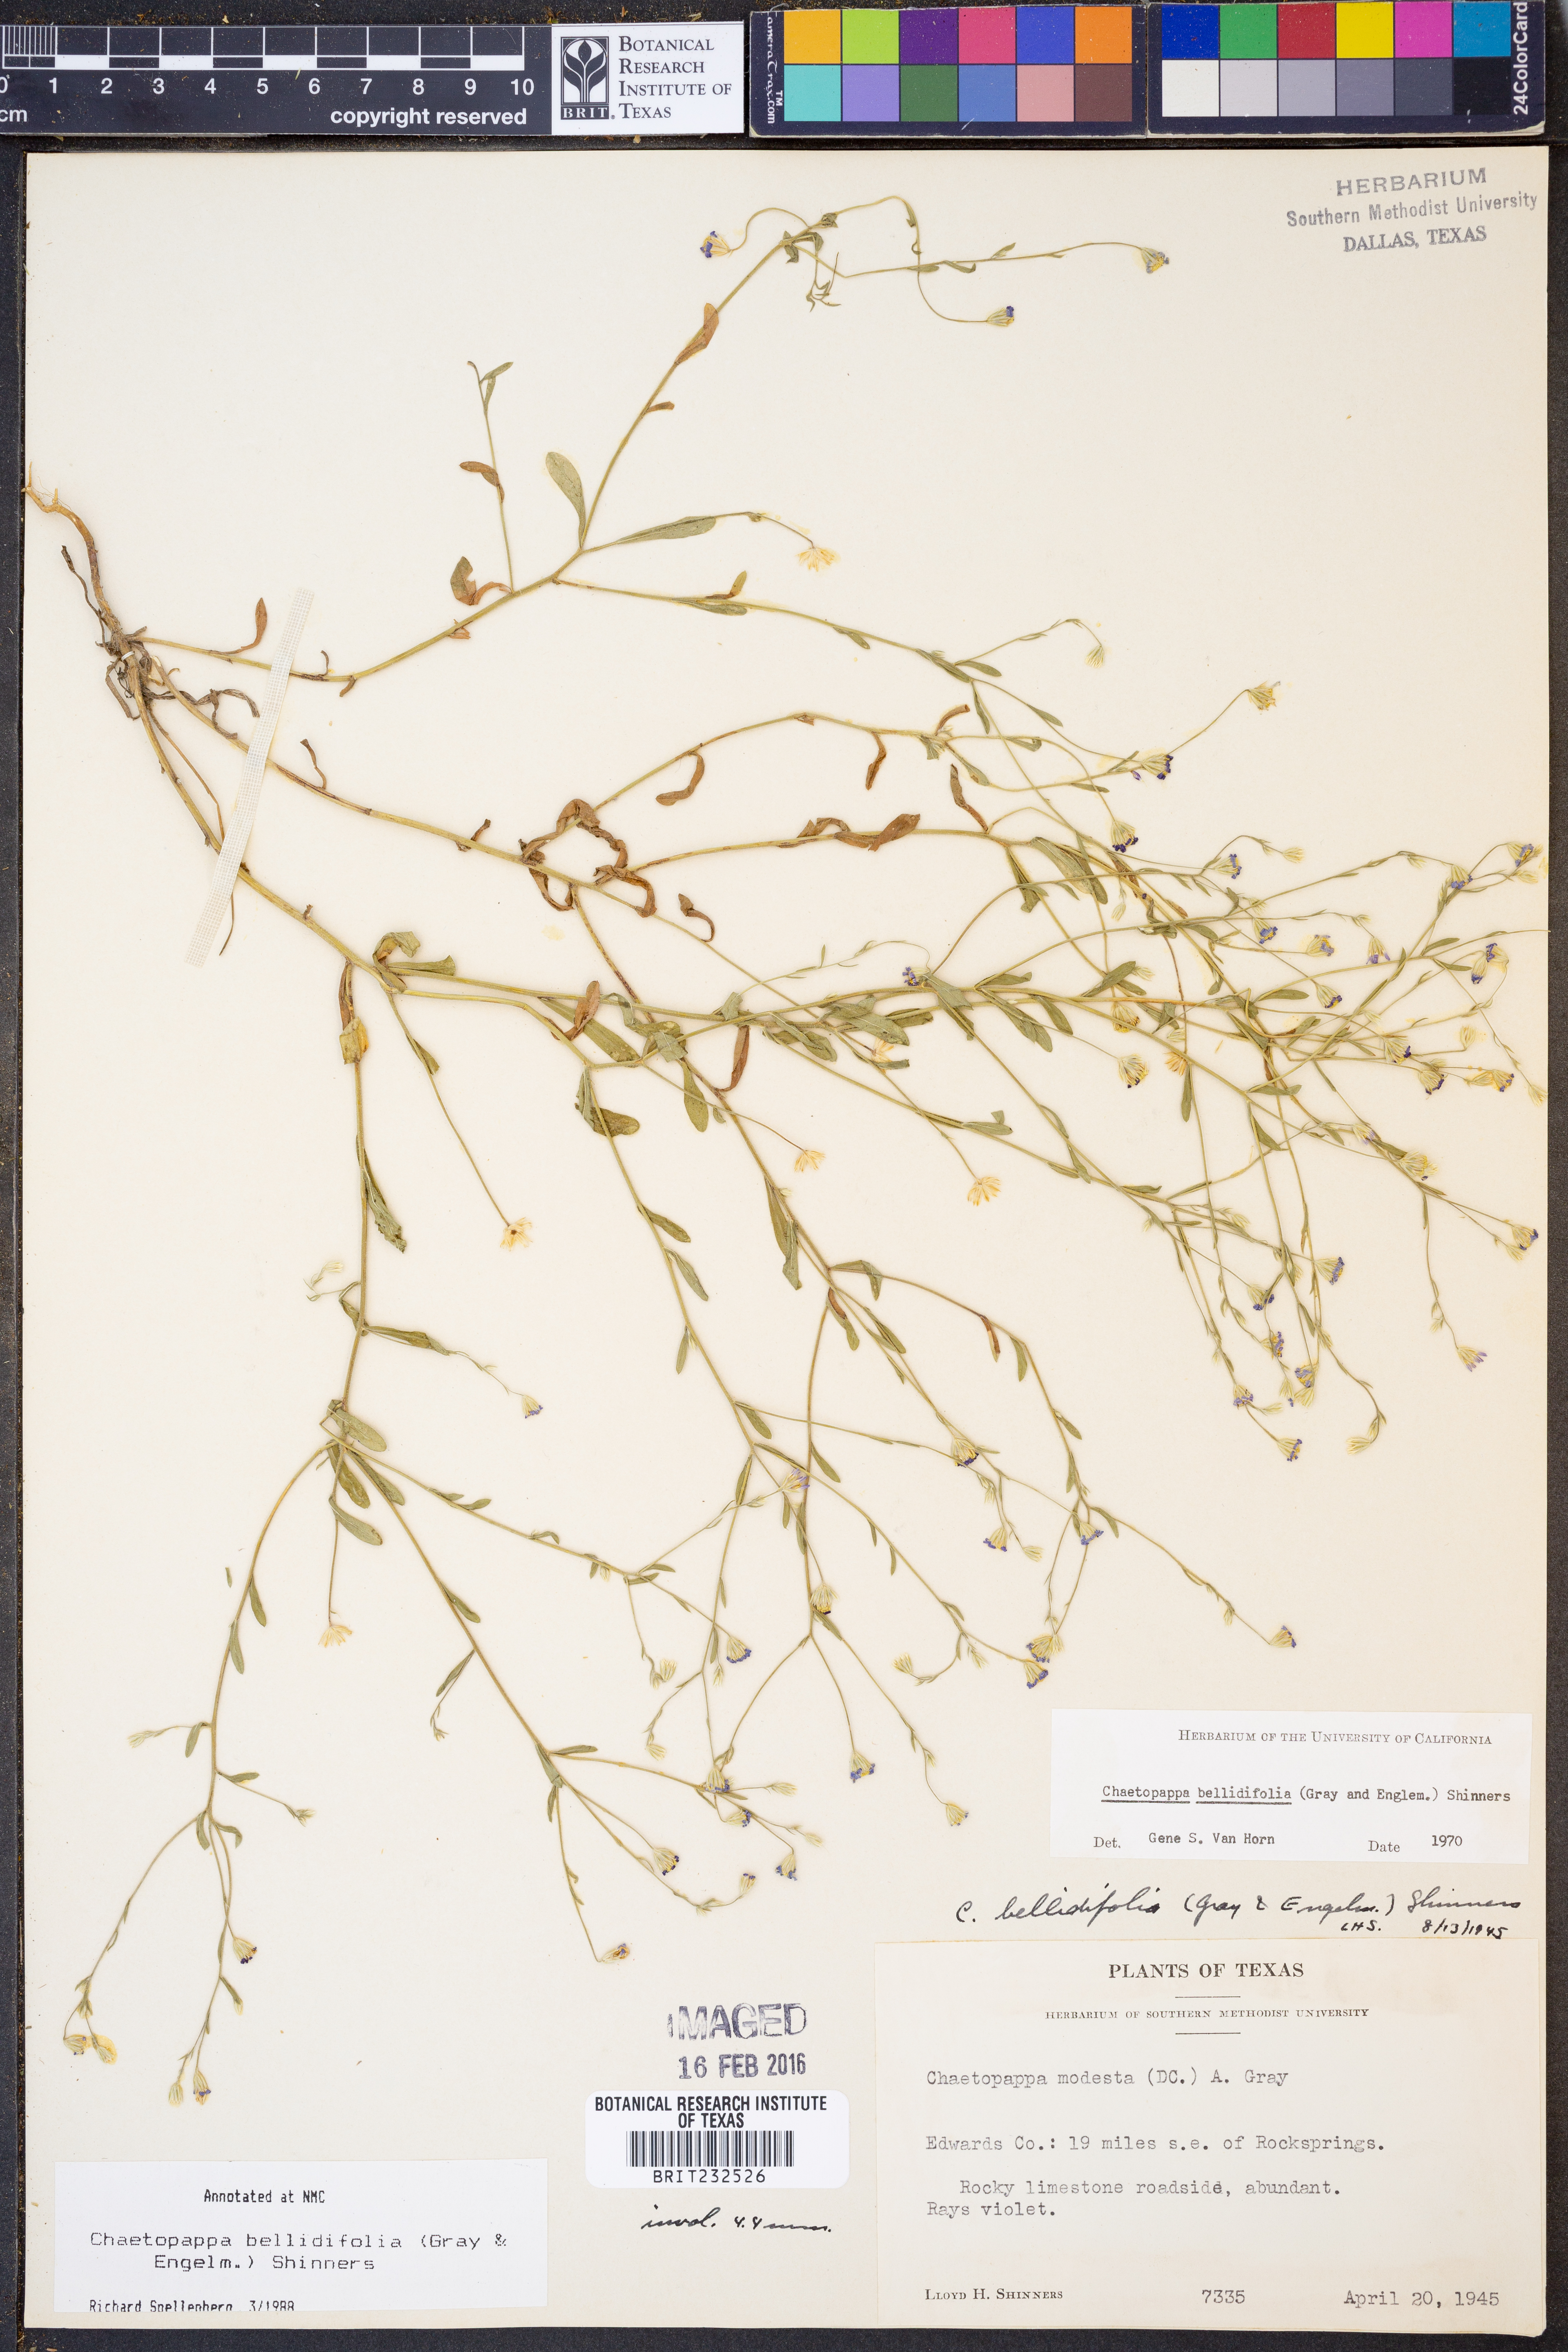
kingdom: Plantae
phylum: Tracheophyta
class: Magnoliopsida
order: Asterales
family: Asteraceae
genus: Chaetopappa
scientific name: Chaetopappa bellidifolia
